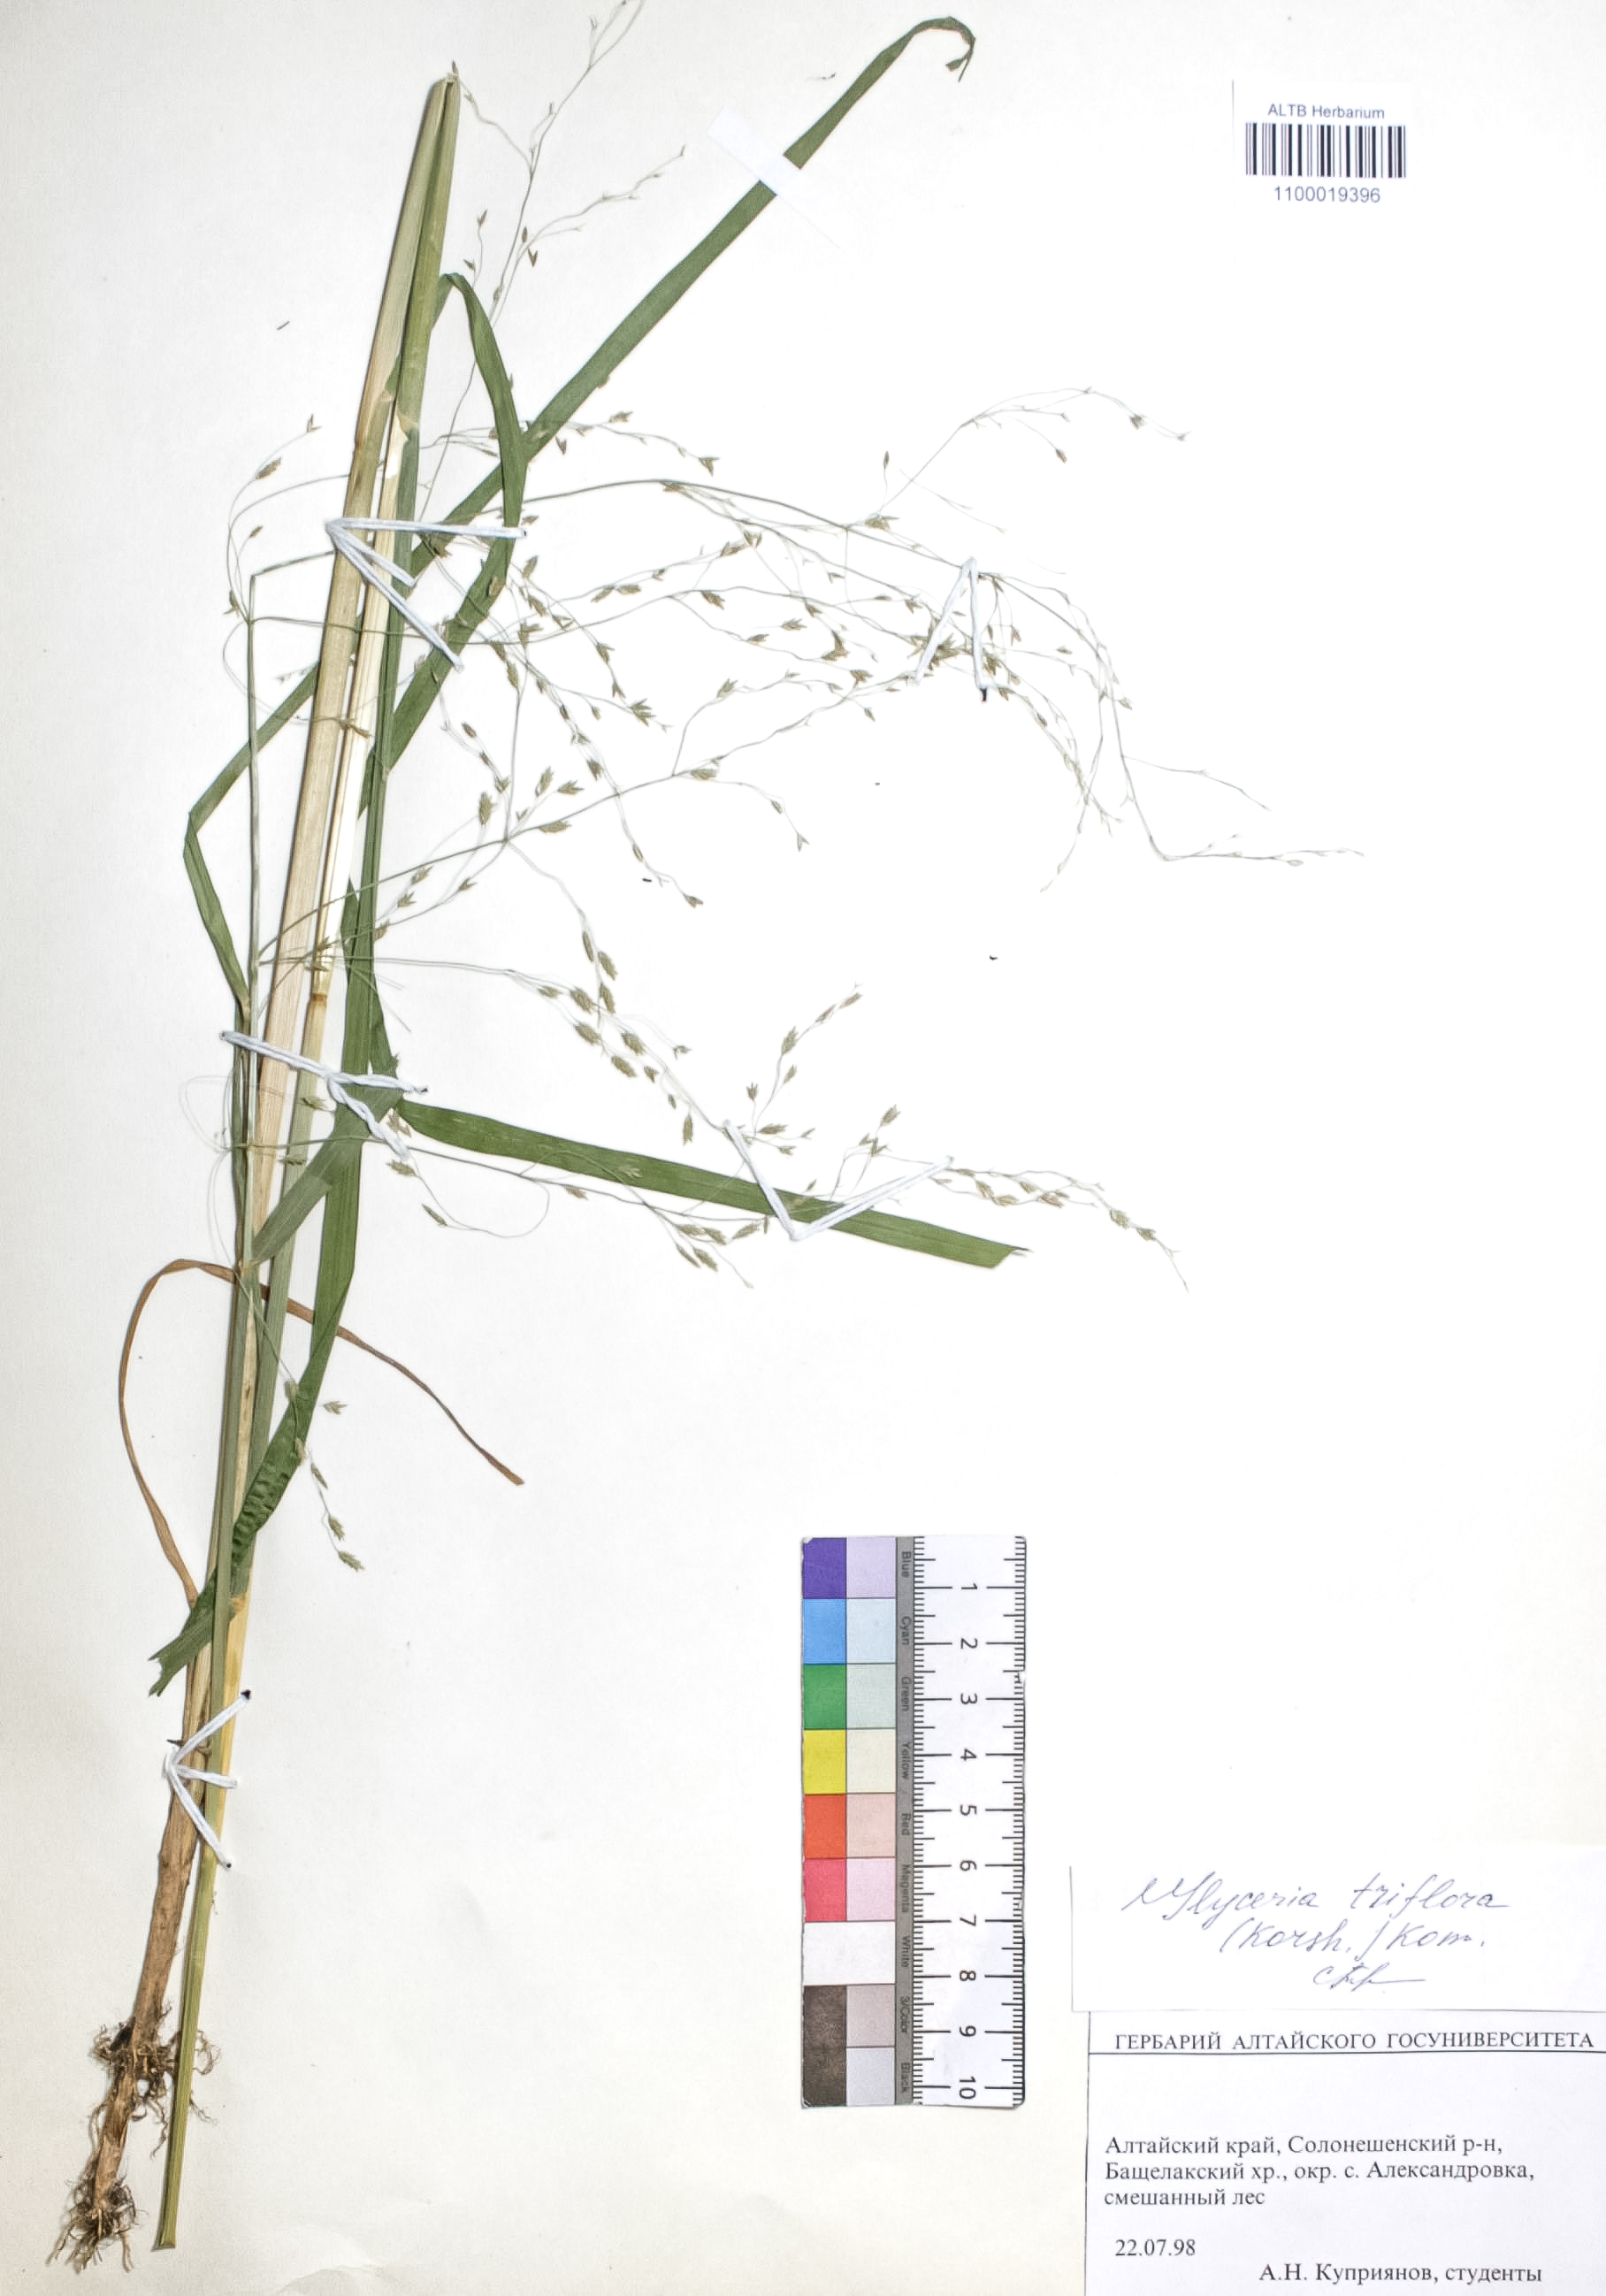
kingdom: Plantae
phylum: Tracheophyta
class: Liliopsida
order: Poales
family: Poaceae
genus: Glyceria
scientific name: Glyceria lithuanica
